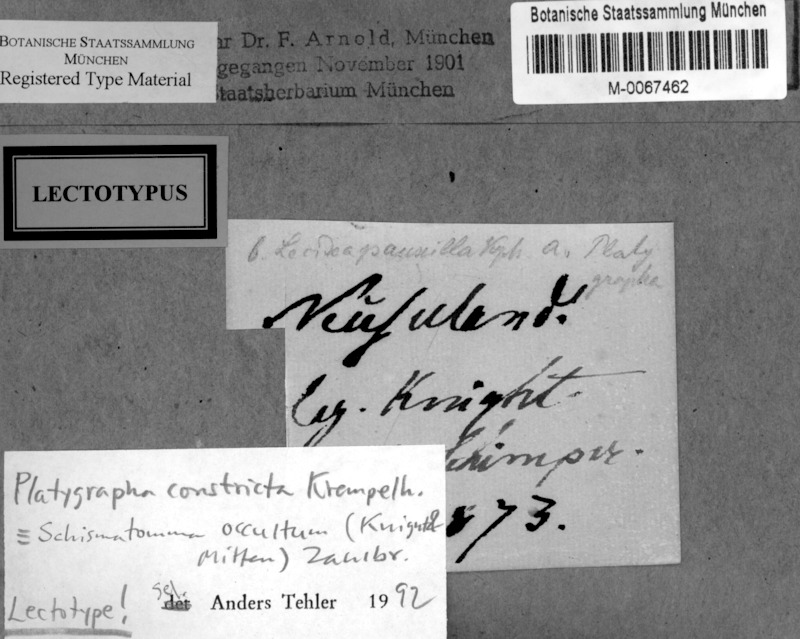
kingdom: Fungi
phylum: Ascomycota
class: Arthoniomycetes
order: Arthoniales
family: Roccellaceae
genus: Schismatomma
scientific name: Schismatomma occultum
